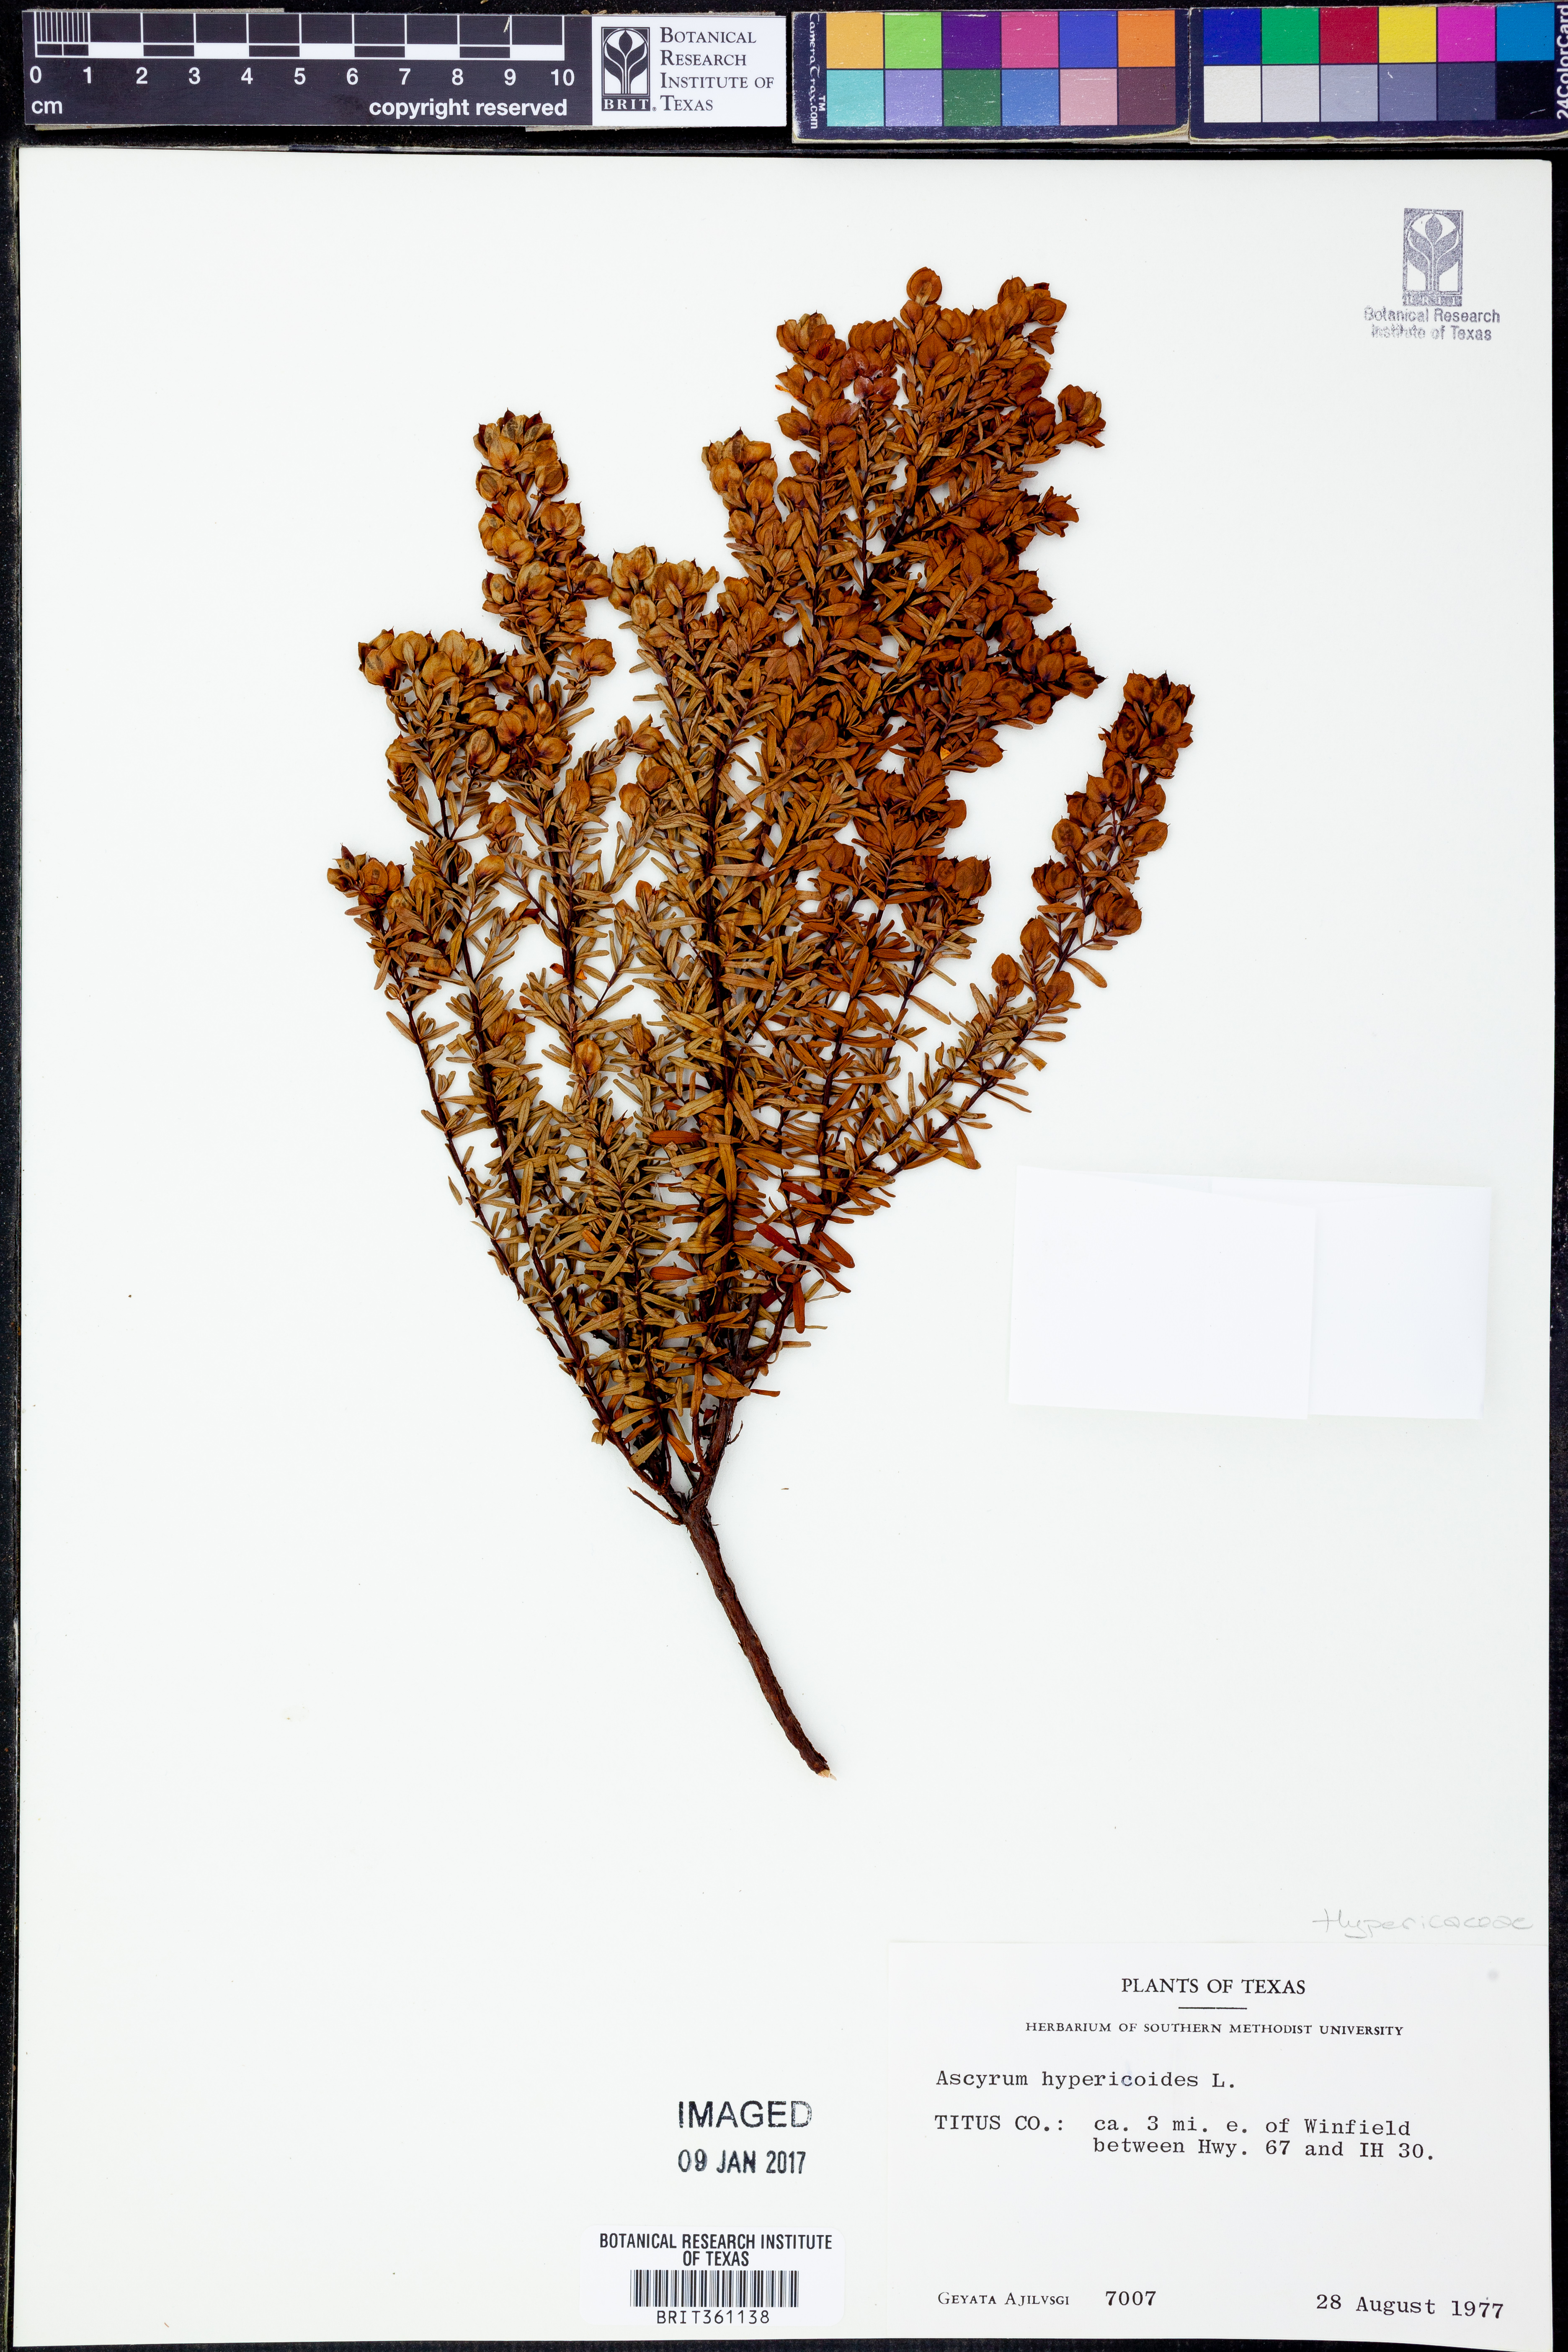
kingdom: Plantae
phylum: Tracheophyta
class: Magnoliopsida
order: Malpighiales
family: Hypericaceae
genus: Hypericum
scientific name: Hypericum hypericoides
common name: St. andrew's cross
